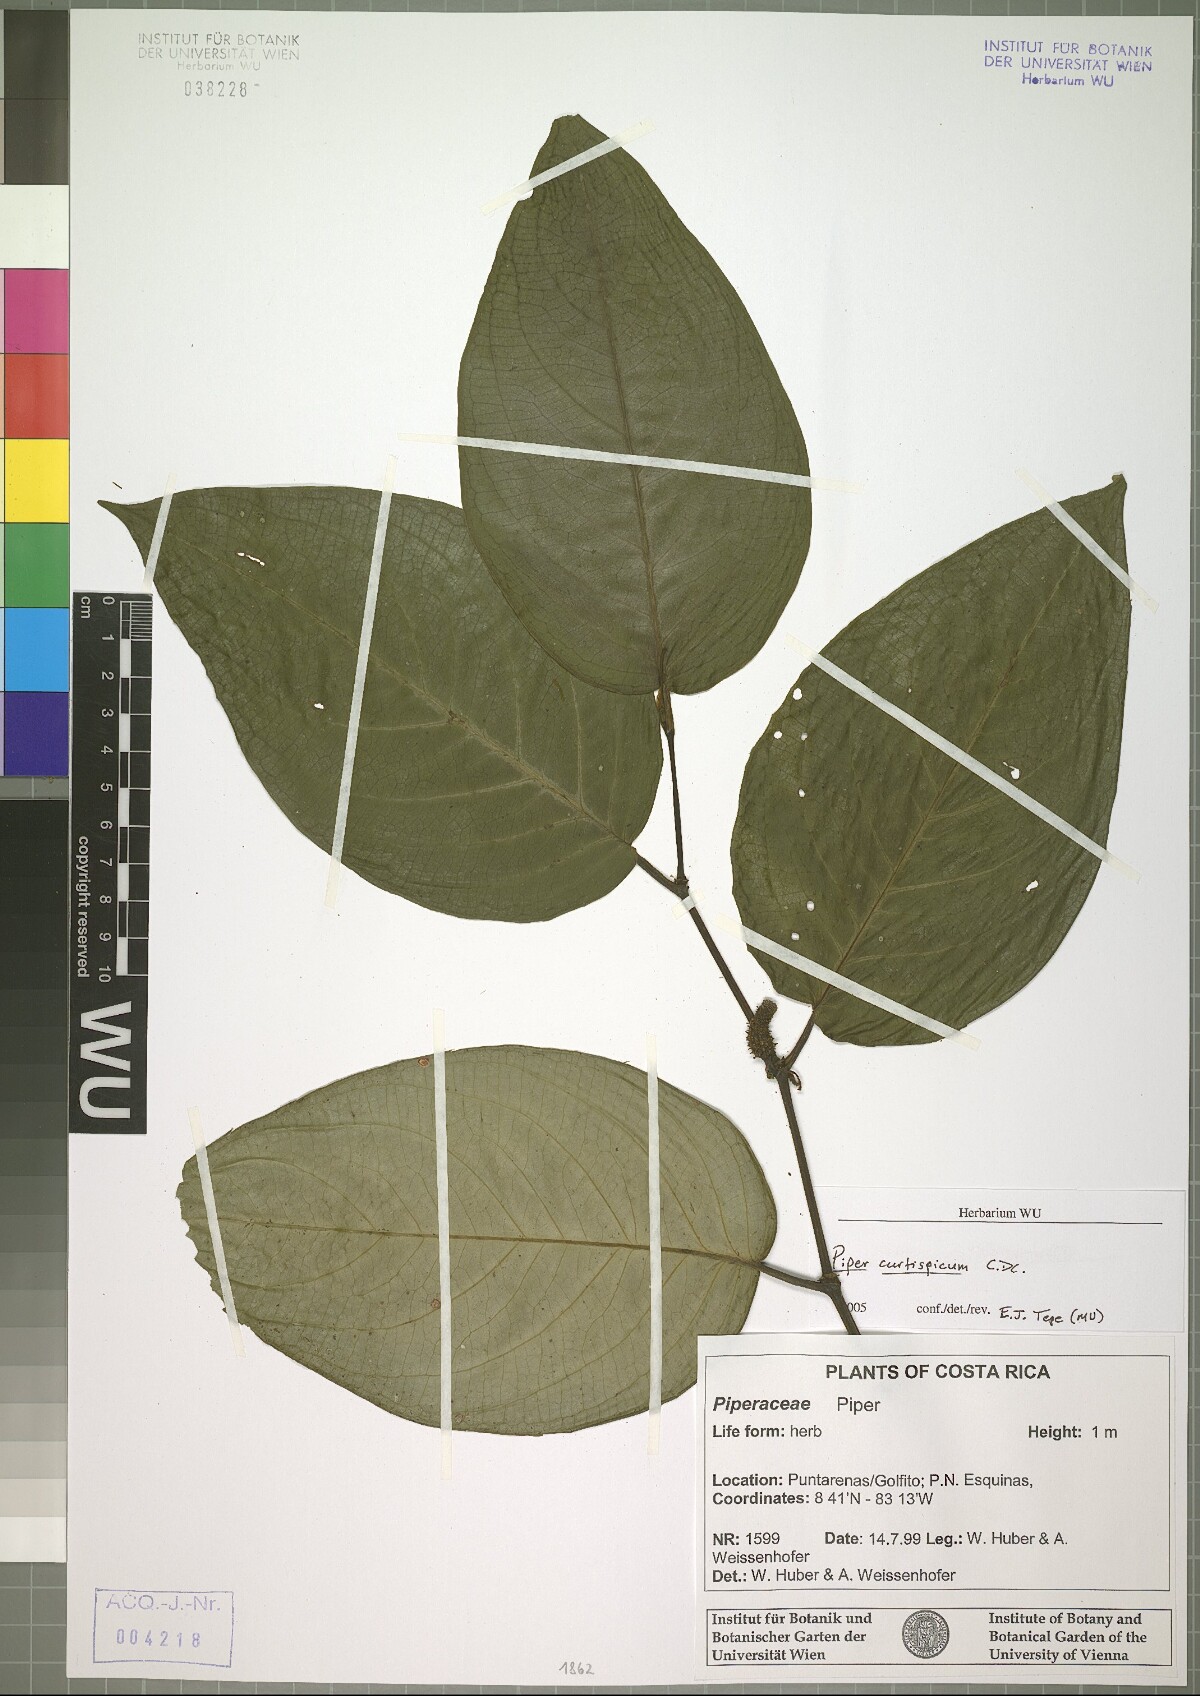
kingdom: Plantae
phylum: Tracheophyta
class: Magnoliopsida
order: Piperales
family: Piperaceae
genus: Piper
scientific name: Piper curtispicum
